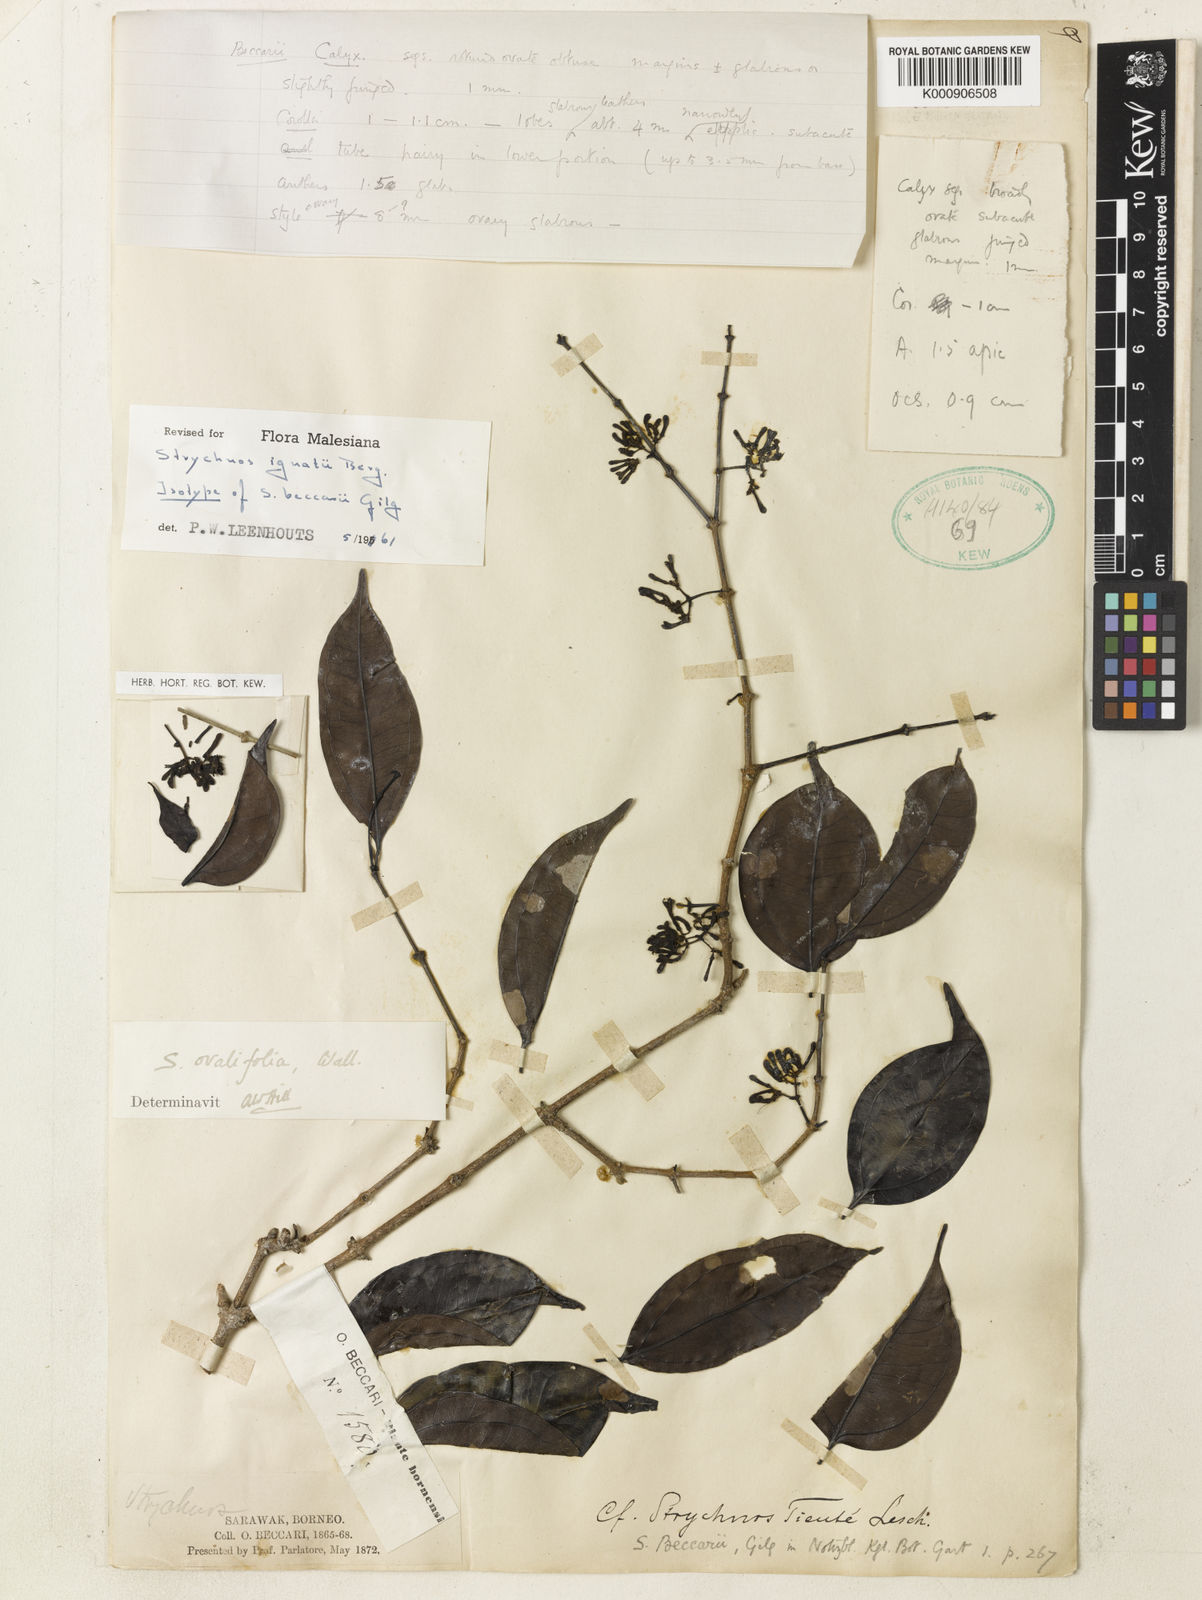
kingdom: Plantae
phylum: Tracheophyta
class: Magnoliopsida
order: Gentianales
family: Loganiaceae
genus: Strychnos
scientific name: Strychnos ignatii
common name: Ignatius-bean
